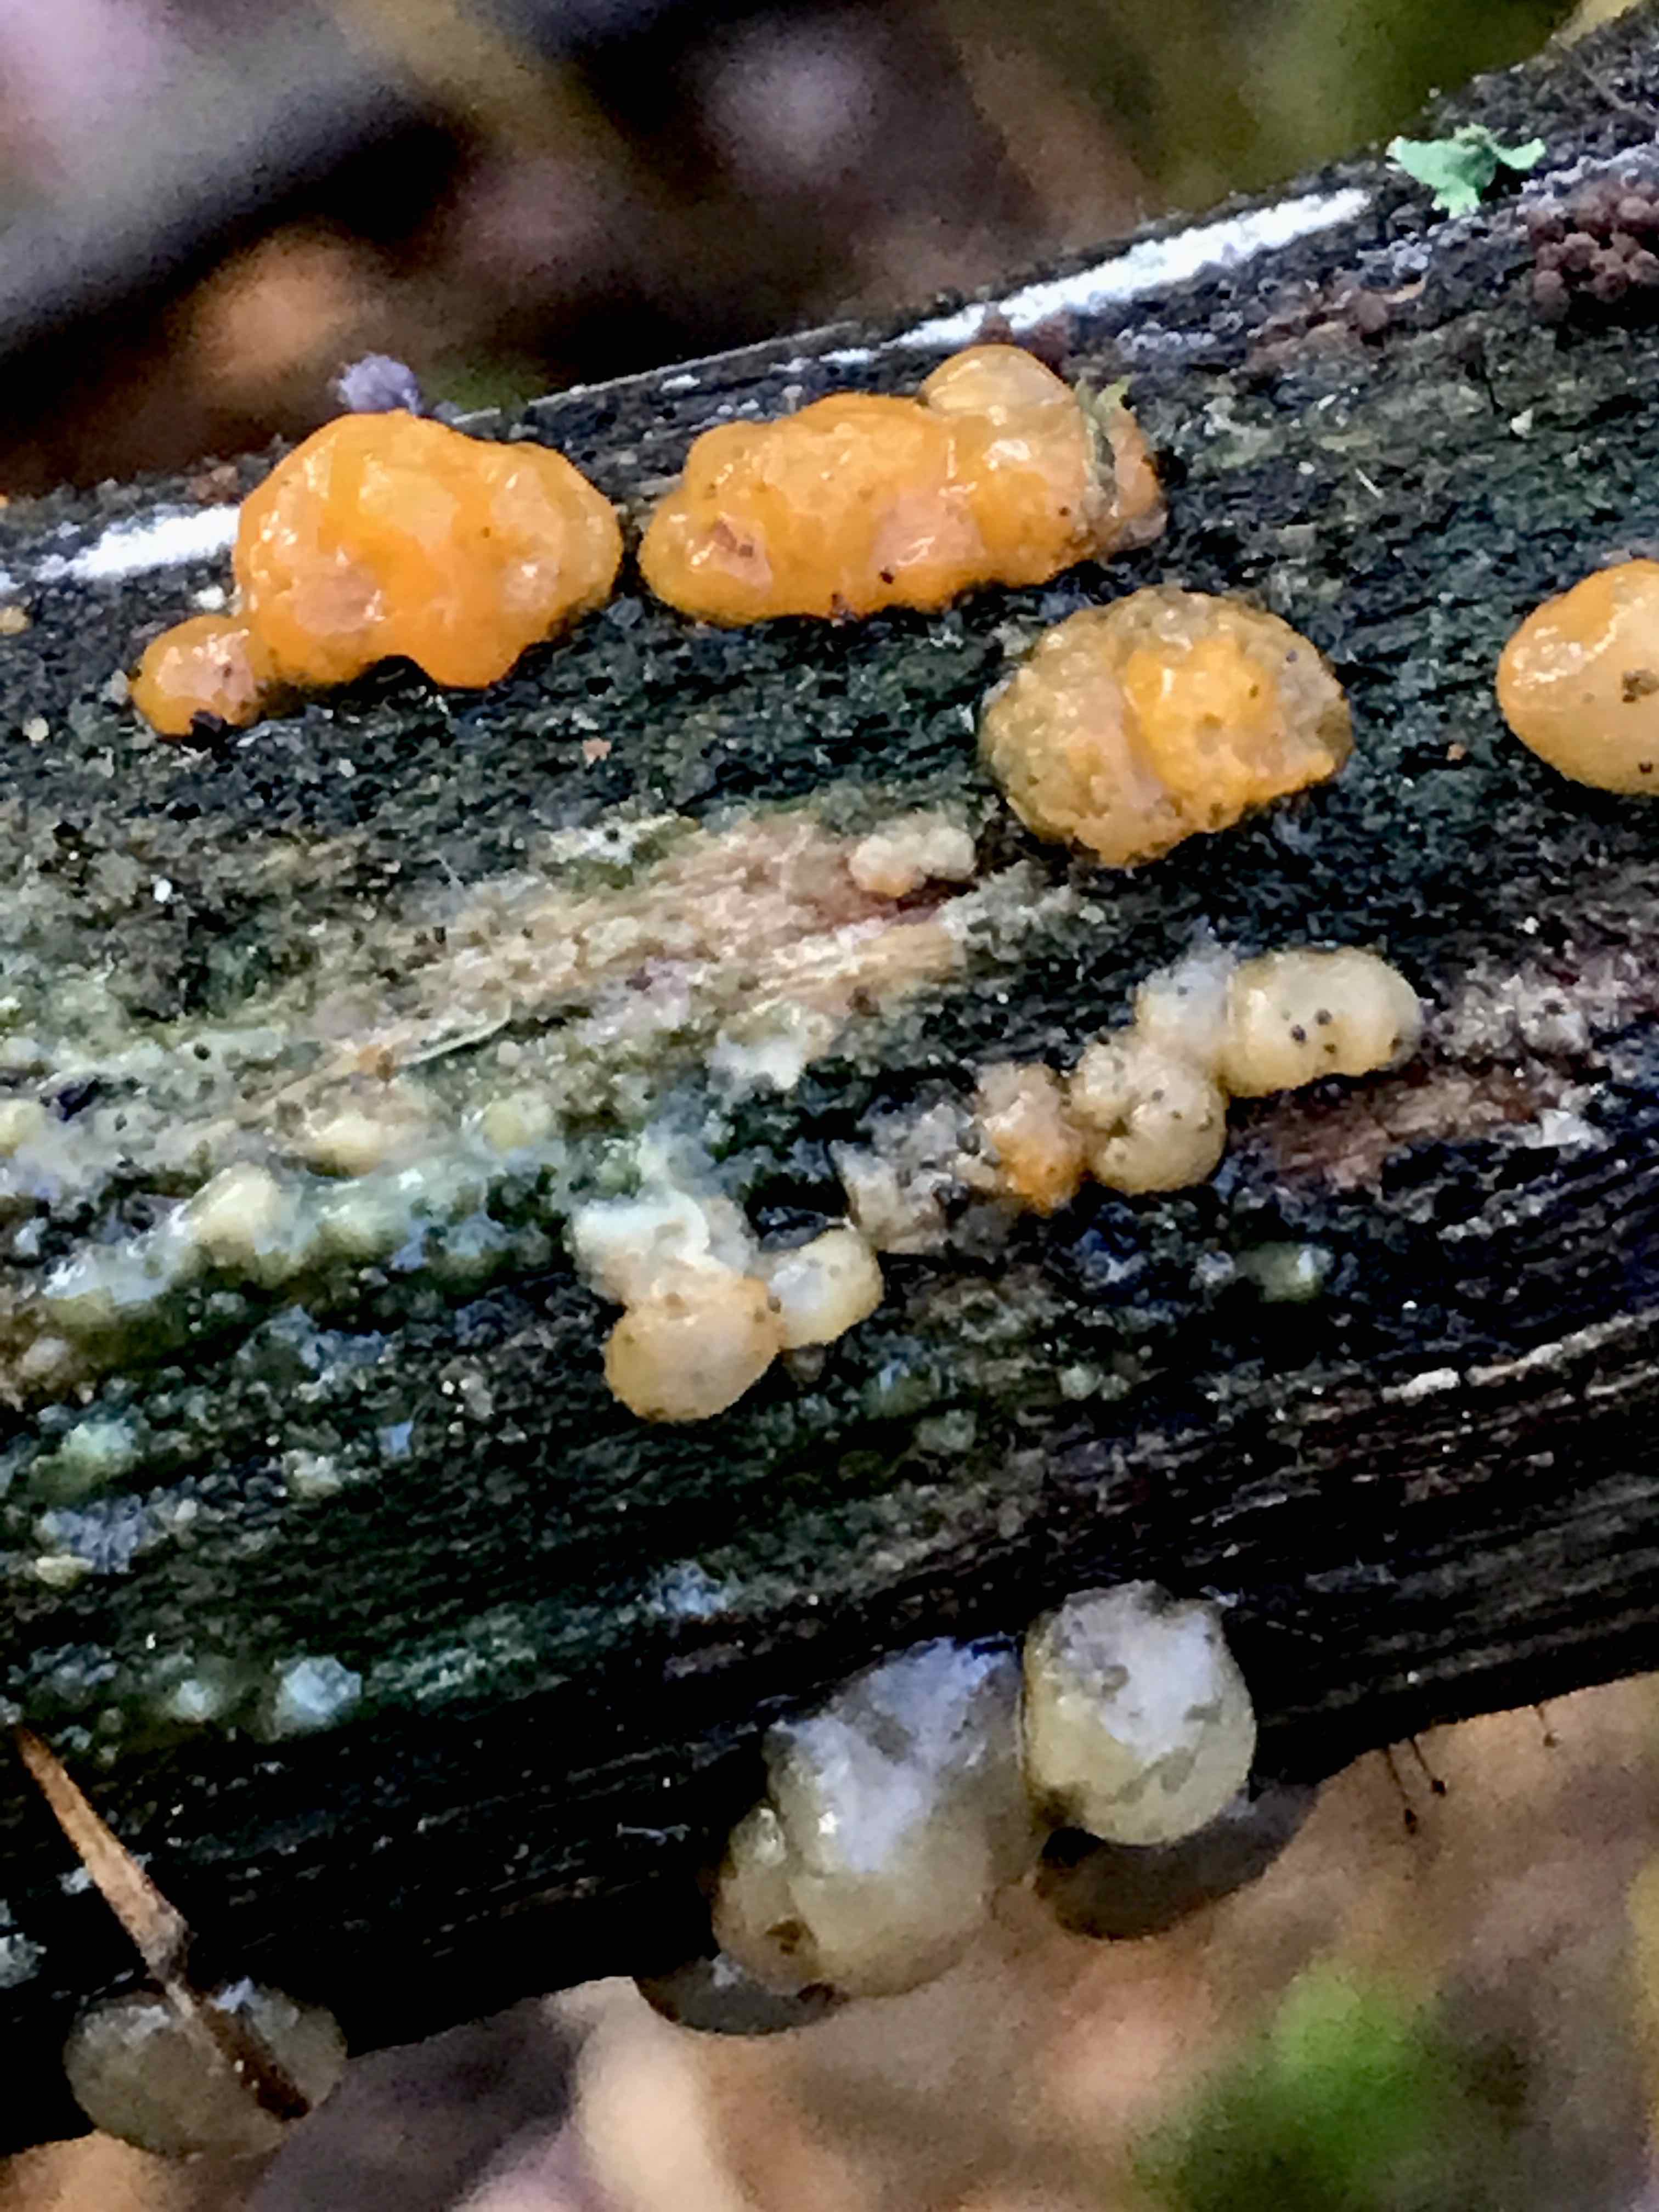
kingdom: Fungi
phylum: Basidiomycota
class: Dacrymycetes
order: Dacrymycetales
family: Dacrymycetaceae
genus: Dacrymyces
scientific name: Dacrymyces stillatus
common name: almindelig tåresvamp
